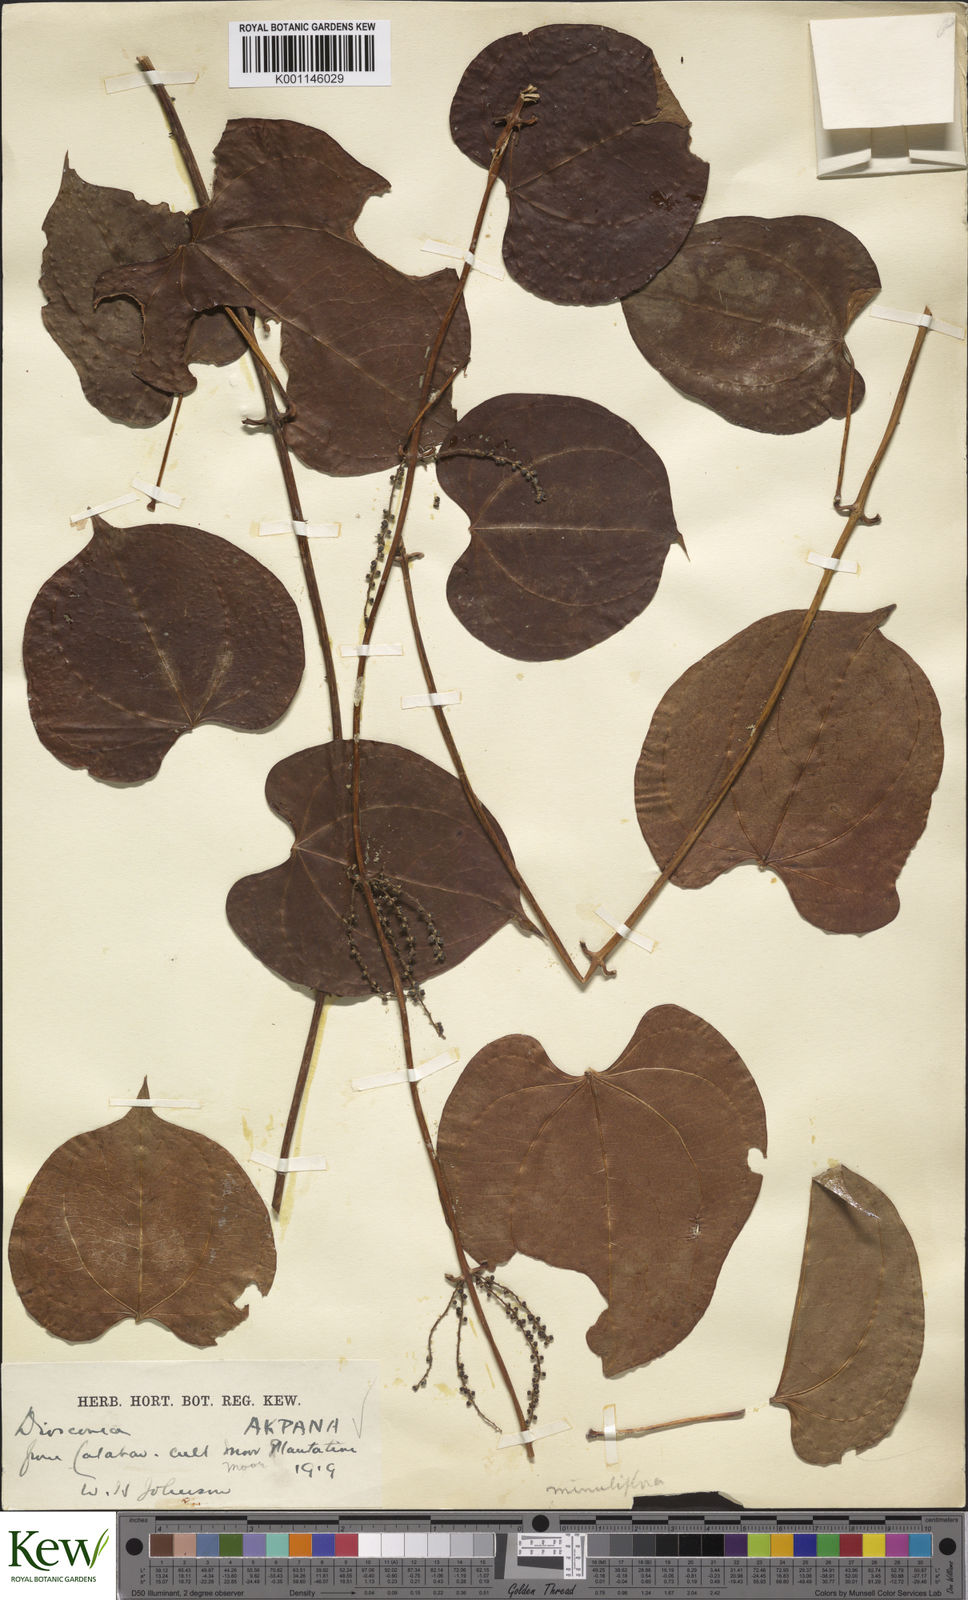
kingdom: Plantae
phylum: Tracheophyta
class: Liliopsida
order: Dioscoreales
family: Dioscoreaceae
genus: Dioscorea
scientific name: Dioscorea minutiflora
